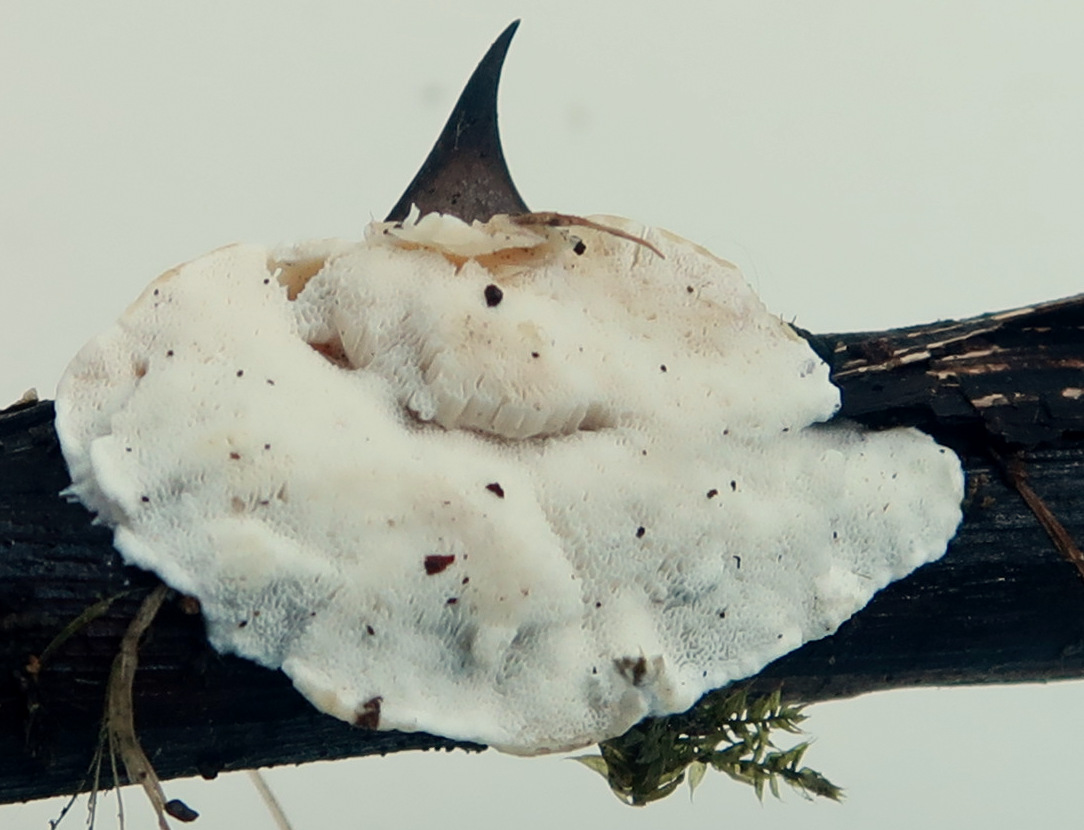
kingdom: Fungi
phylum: Basidiomycota
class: Agaricomycetes
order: Polyporales
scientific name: Polyporales
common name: poresvampordenen
